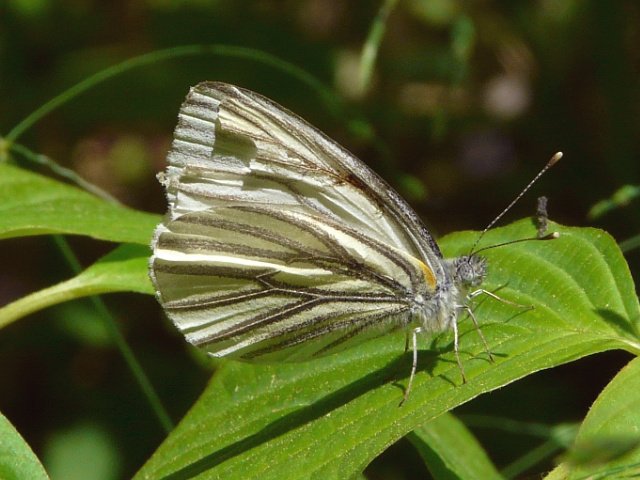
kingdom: Animalia
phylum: Arthropoda
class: Insecta
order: Lepidoptera
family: Pieridae
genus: Pieris
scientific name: Pieris oleracea
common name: Mustard White
